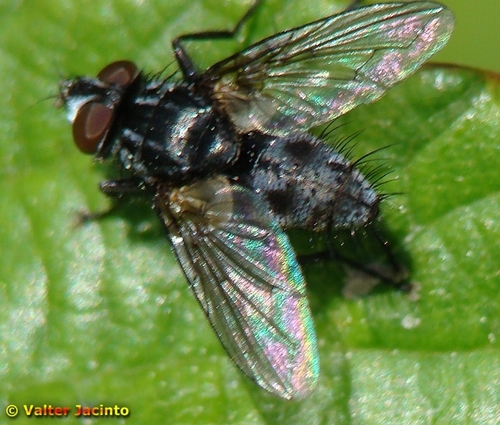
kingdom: Animalia
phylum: Arthropoda
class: Insecta
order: Diptera
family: Tachinidae
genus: Meigenia
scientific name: Meigenia
